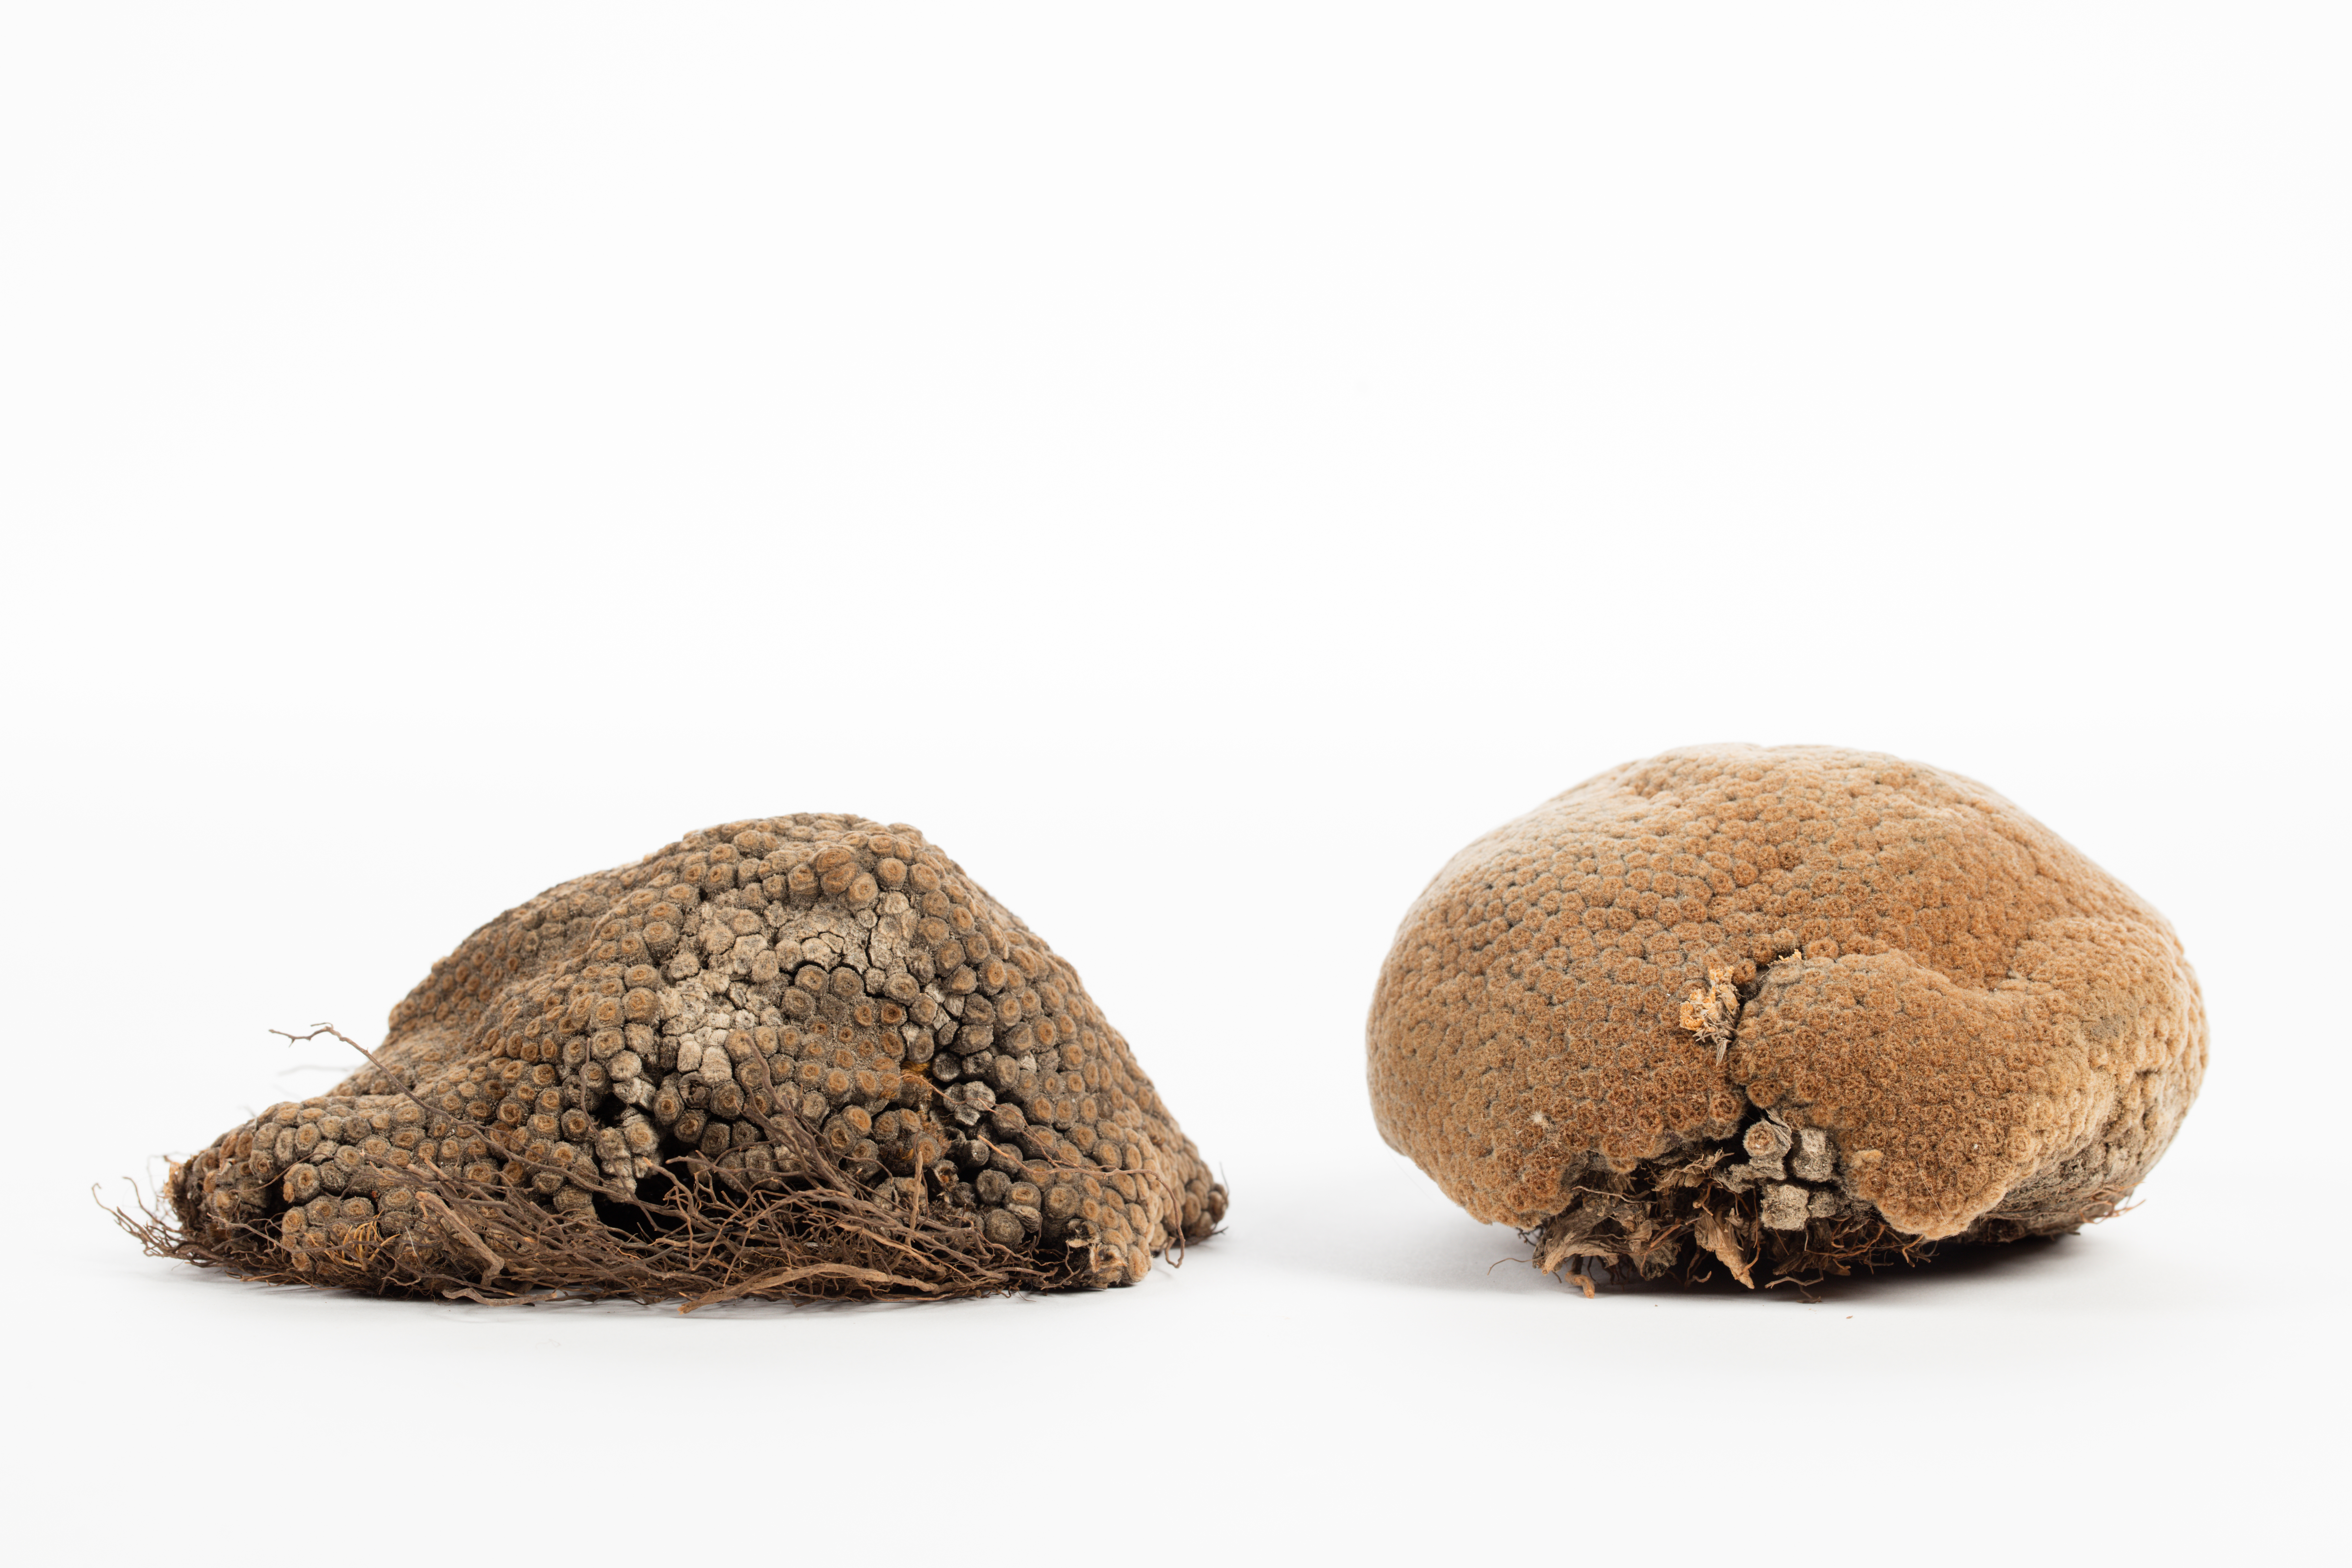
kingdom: Plantae
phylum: Tracheophyta
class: Magnoliopsida
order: Asterales
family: Asteraceae
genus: Raoulia
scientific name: Raoulia rubra
